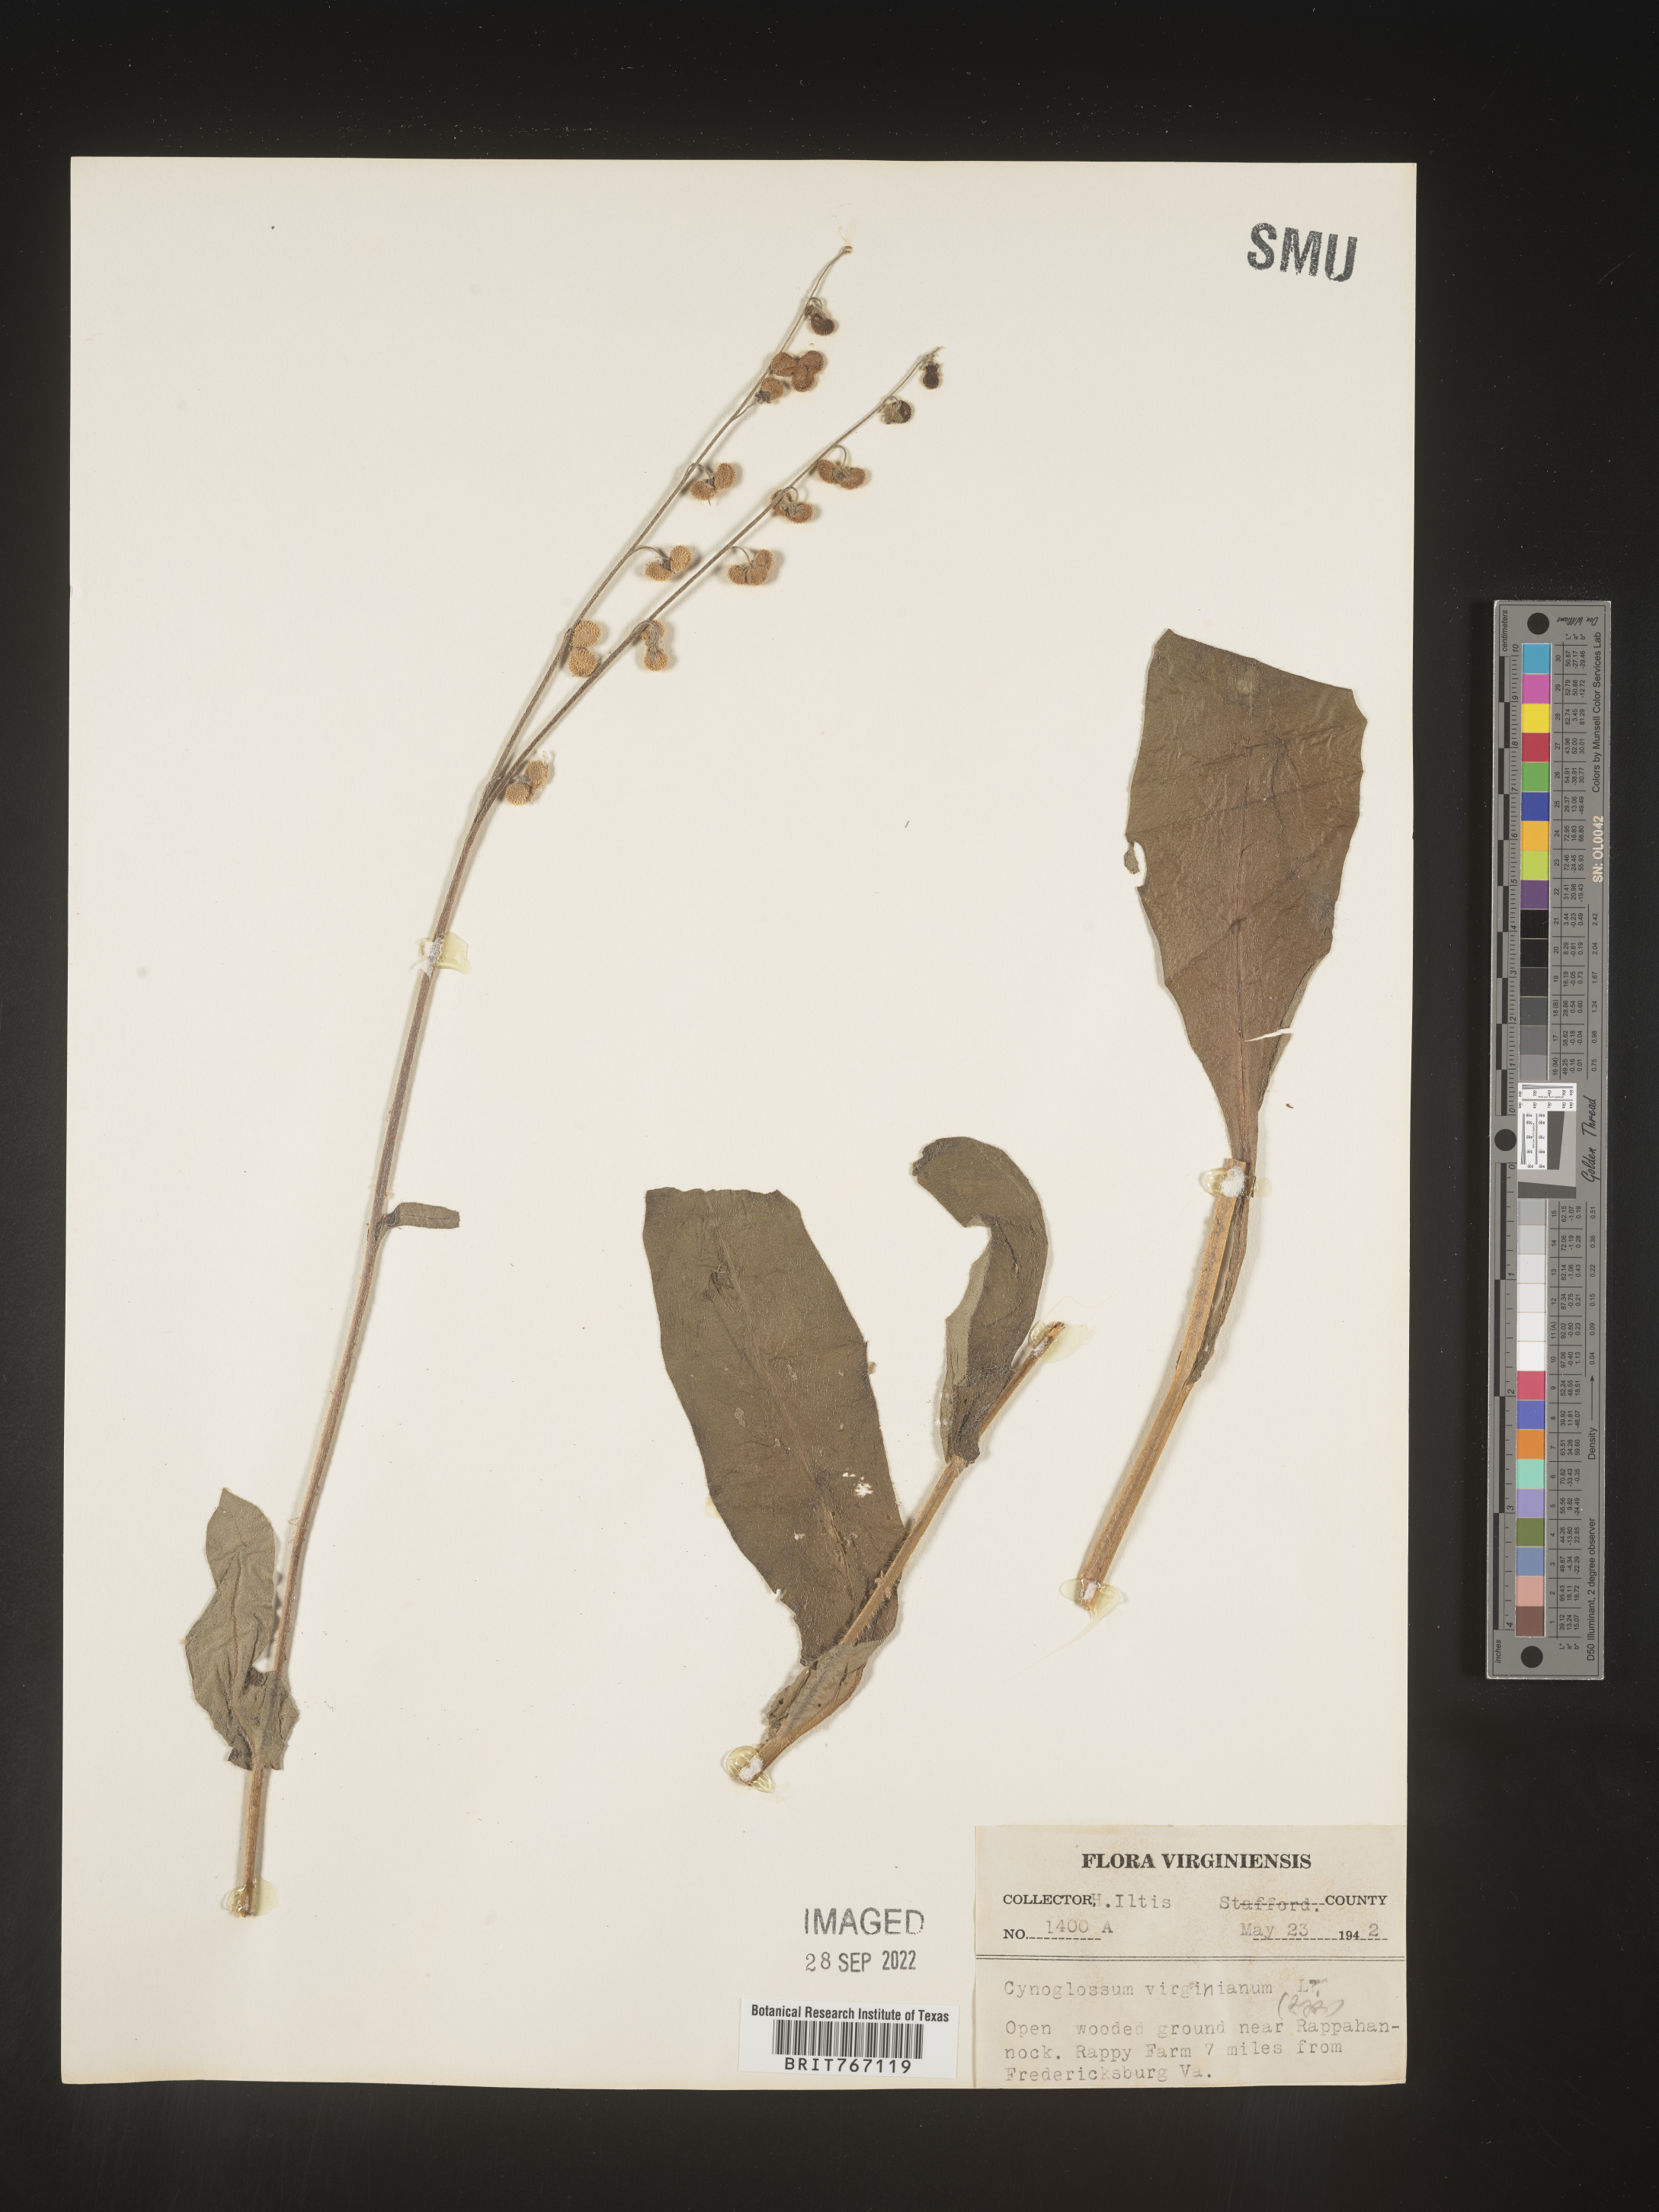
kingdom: Plantae
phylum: Tracheophyta
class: Magnoliopsida
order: Boraginales
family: Boraginaceae
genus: Andersonglossum
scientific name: Andersonglossum virginianum
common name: Wild comfrey
